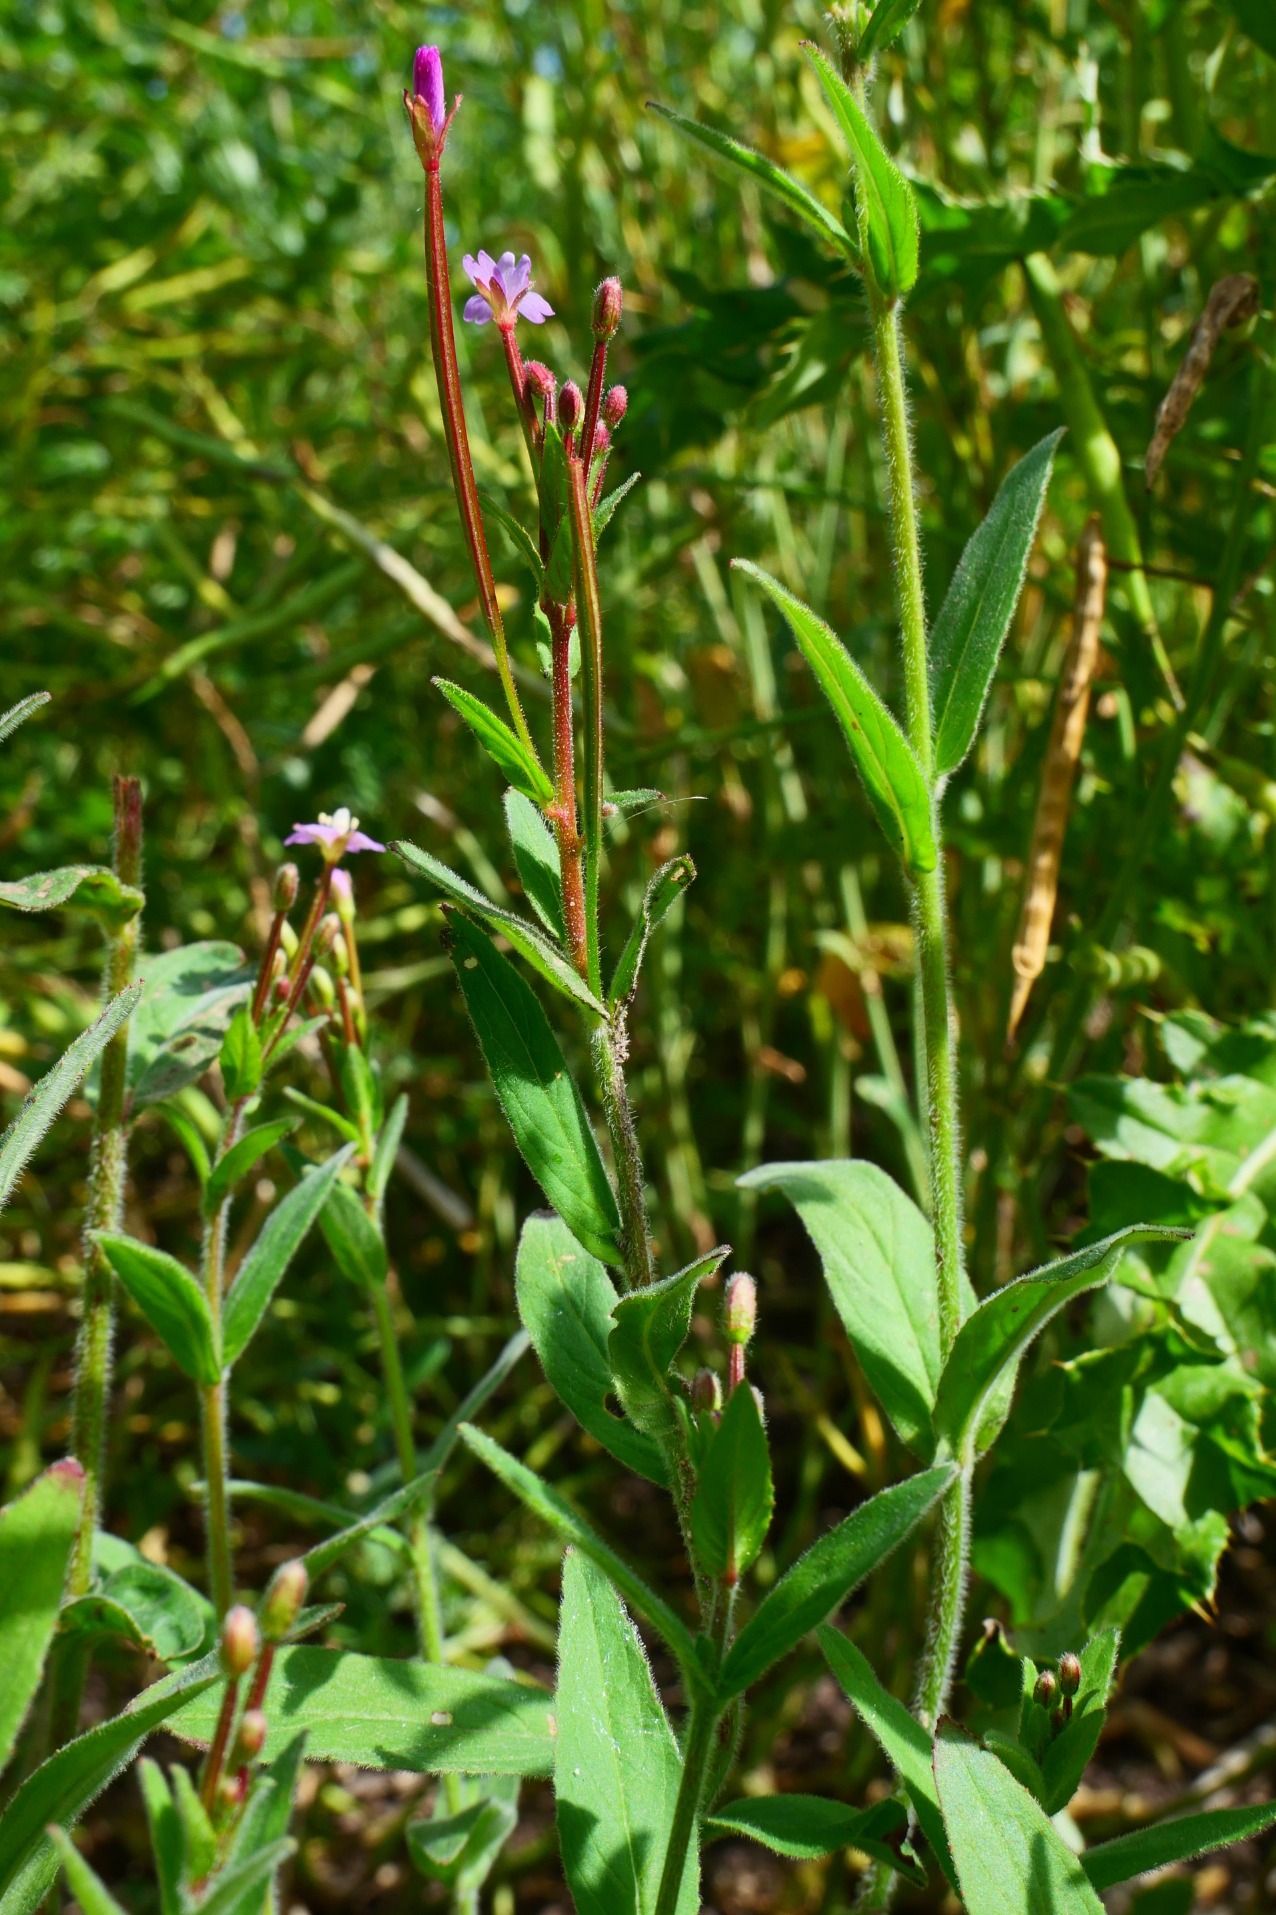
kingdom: Plantae
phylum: Tracheophyta
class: Magnoliopsida
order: Myrtales
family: Onagraceae
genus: Epilobium
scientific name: Epilobium parviflorum
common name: Dunet dueurt
